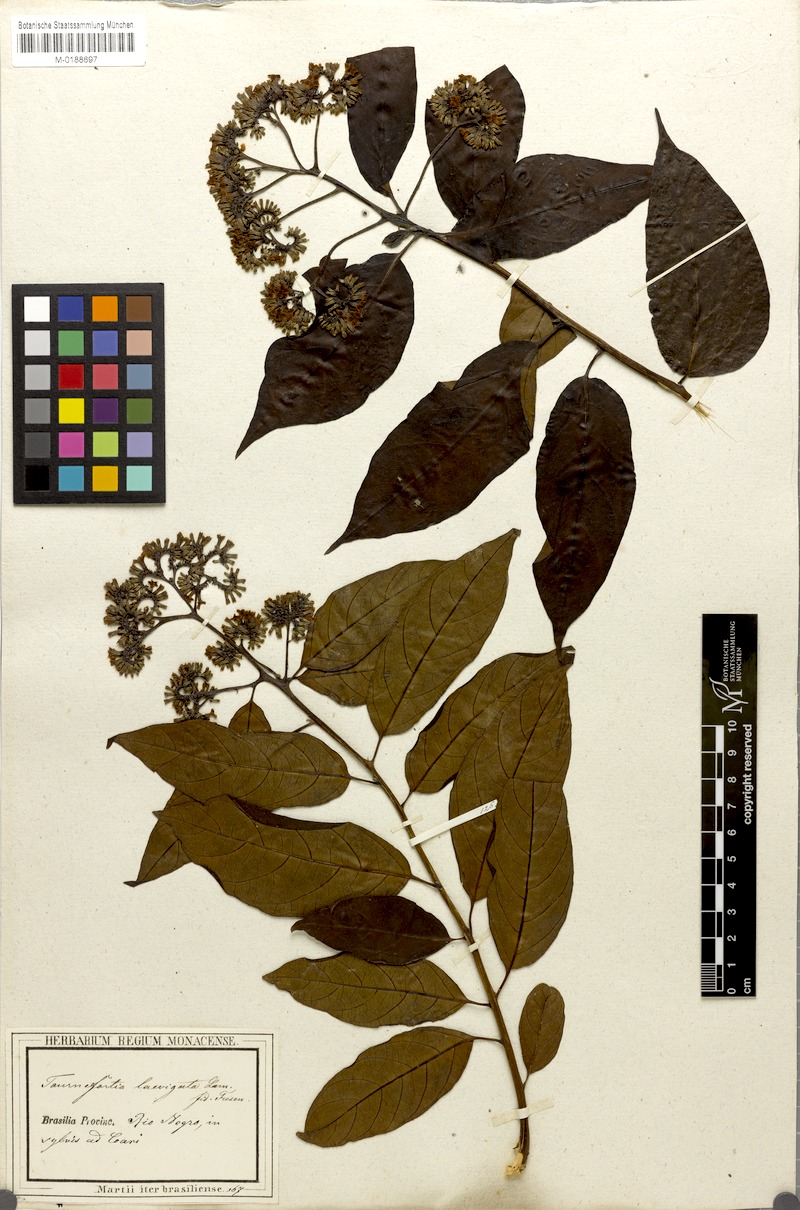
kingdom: Plantae
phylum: Tracheophyta
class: Magnoliopsida
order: Boraginales
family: Heliotropiaceae
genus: Heliotropium
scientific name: Heliotropium verdcourtii
